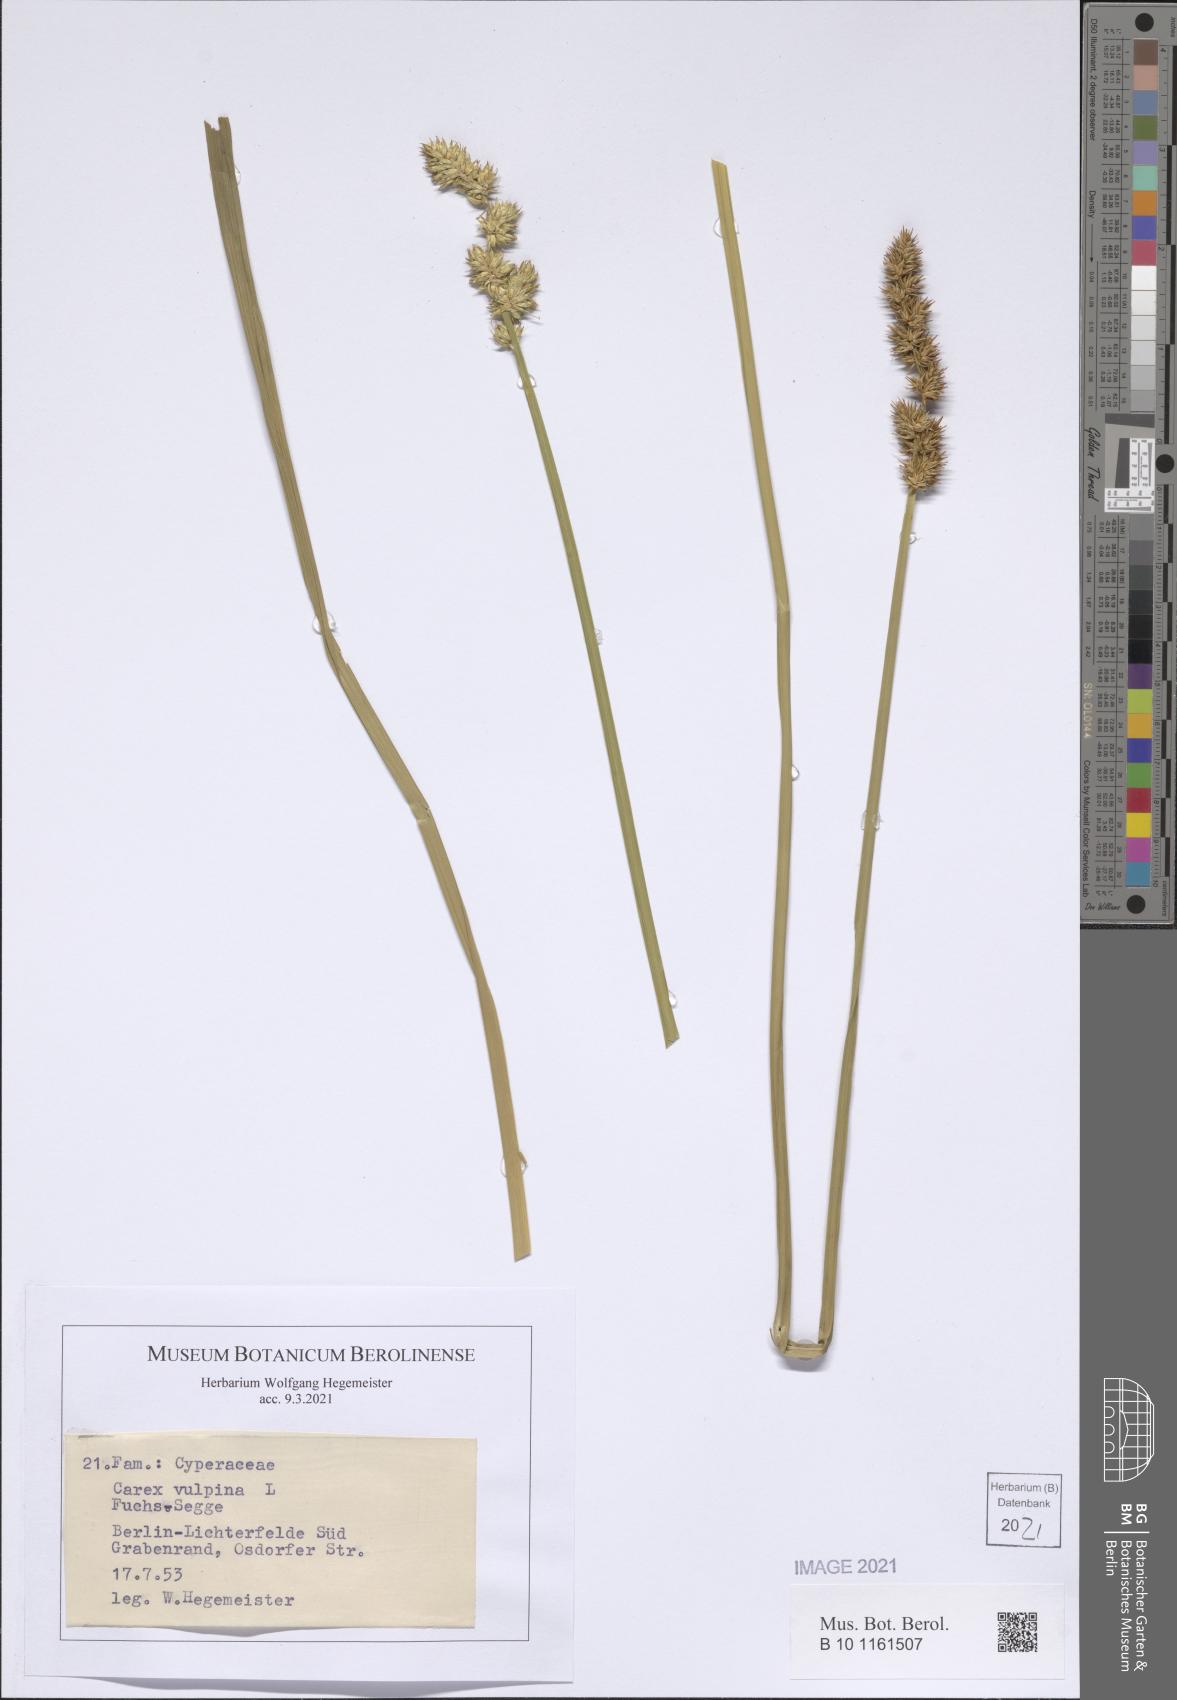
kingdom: Plantae
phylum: Tracheophyta
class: Liliopsida
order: Poales
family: Cyperaceae
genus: Carex
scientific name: Carex vulpina
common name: True fox-sedge
